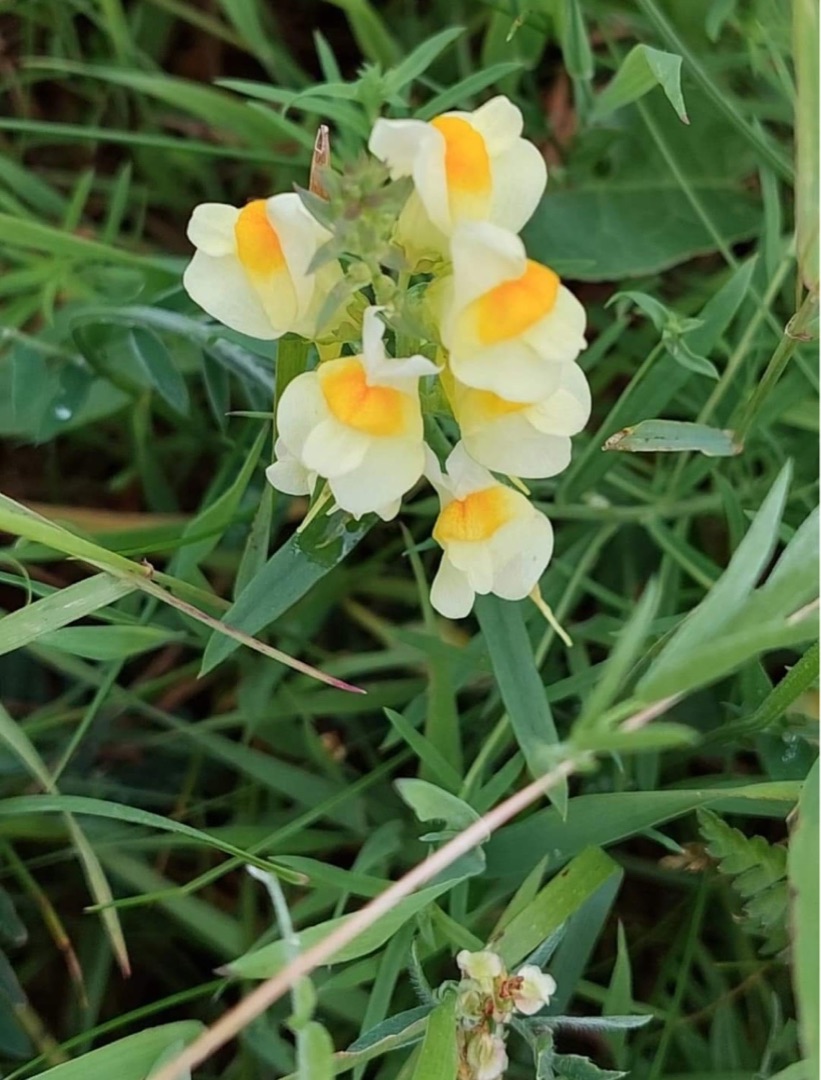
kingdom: Plantae
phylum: Tracheophyta
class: Magnoliopsida
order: Lamiales
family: Plantaginaceae
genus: Linaria
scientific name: Linaria vulgaris
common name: Almindelig torskemund
